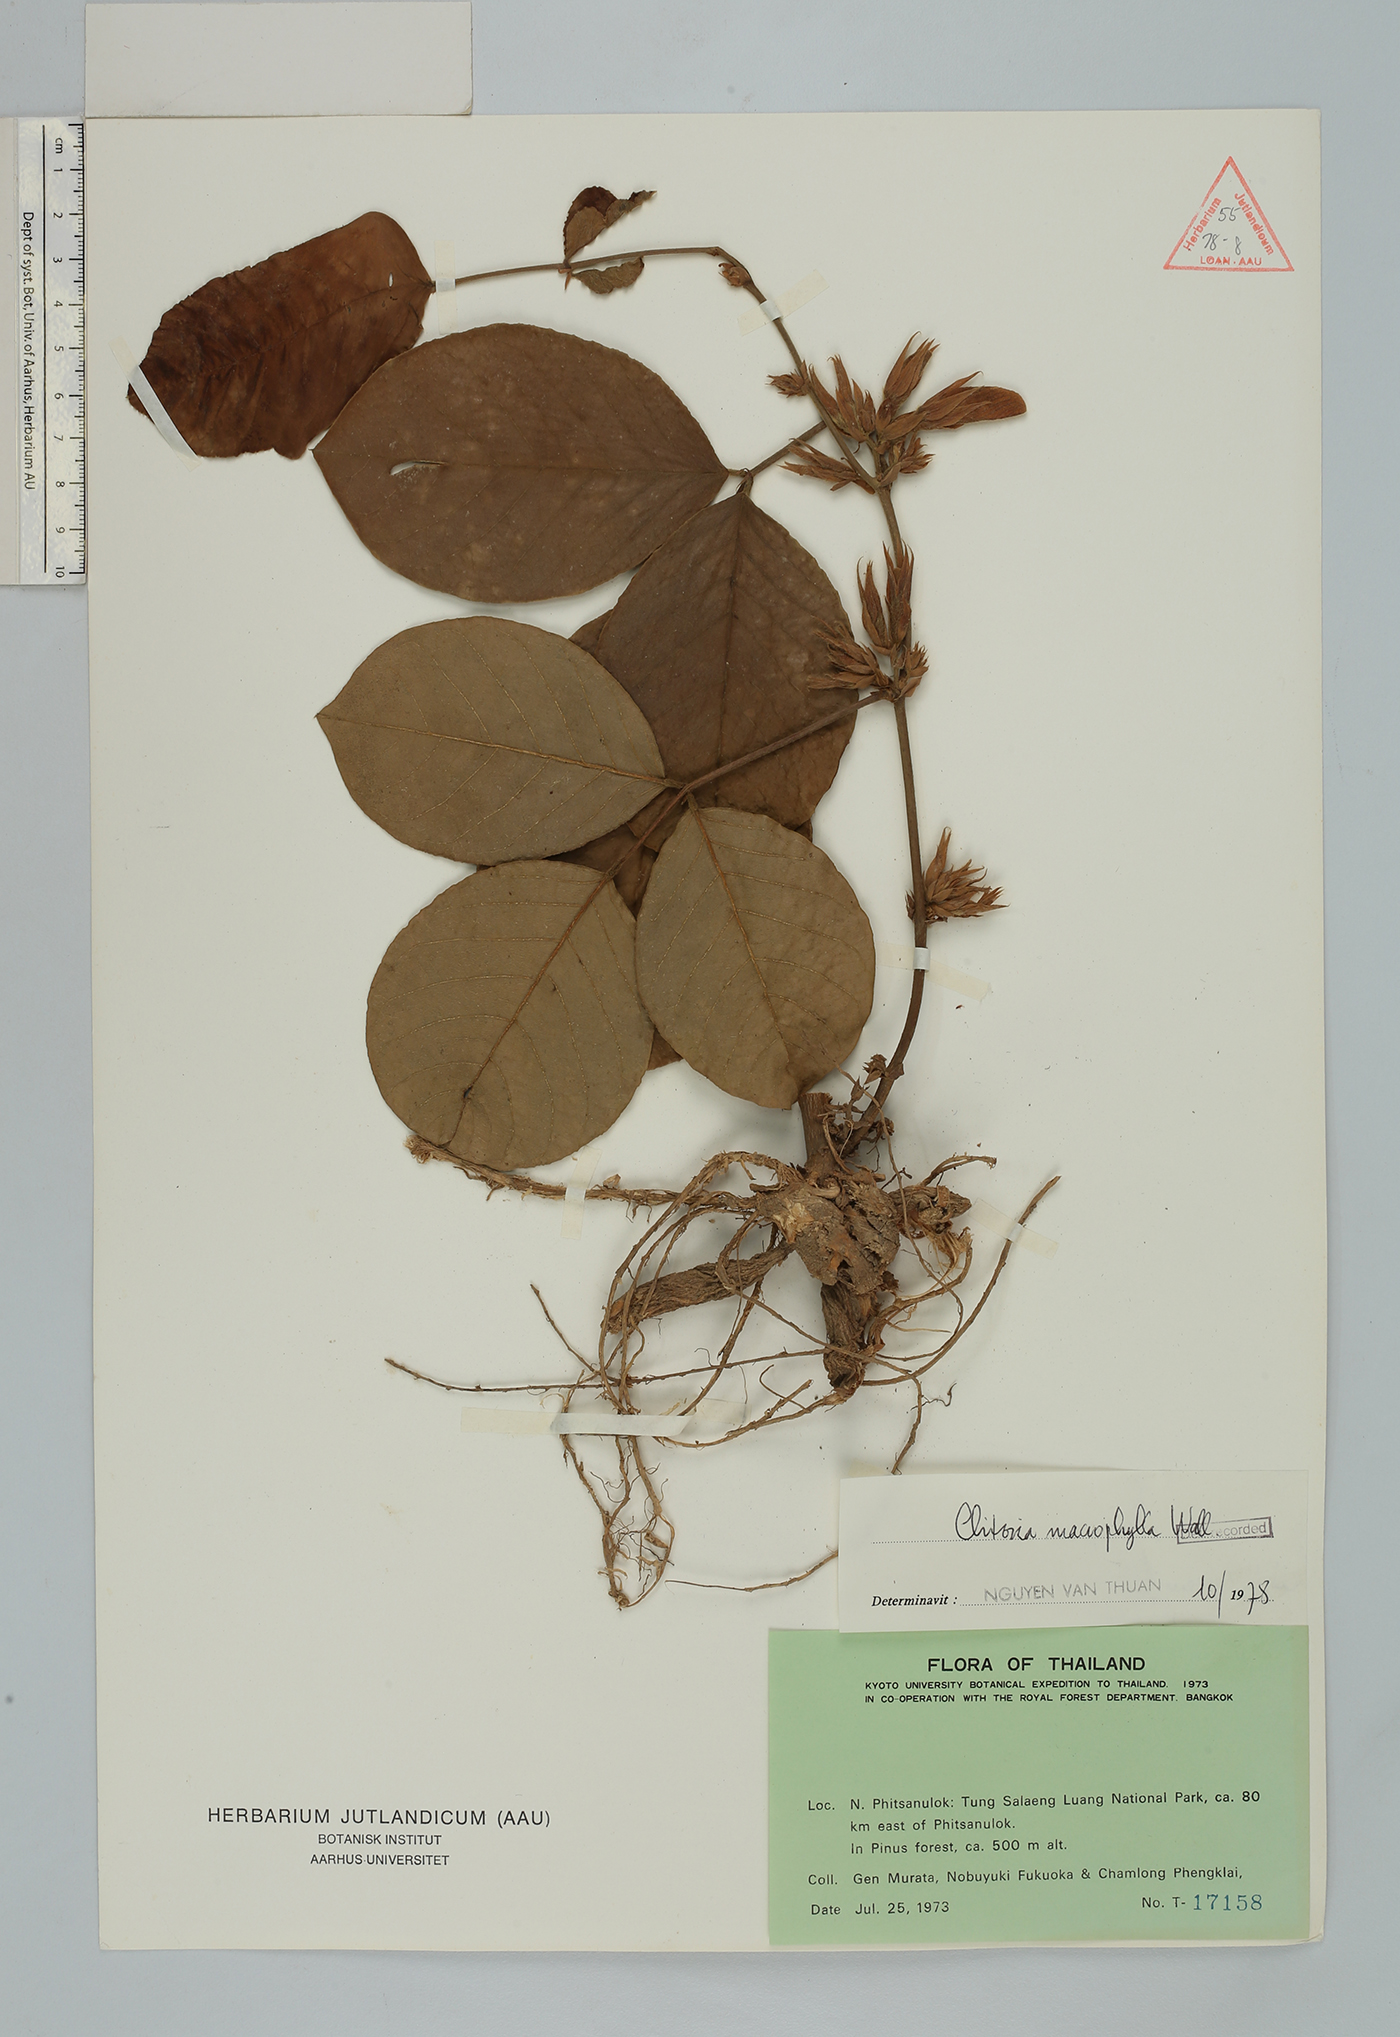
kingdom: Plantae
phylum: Tracheophyta
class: Magnoliopsida
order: Fabales
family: Fabaceae
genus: Clitoria
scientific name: Clitoria macrophylla
